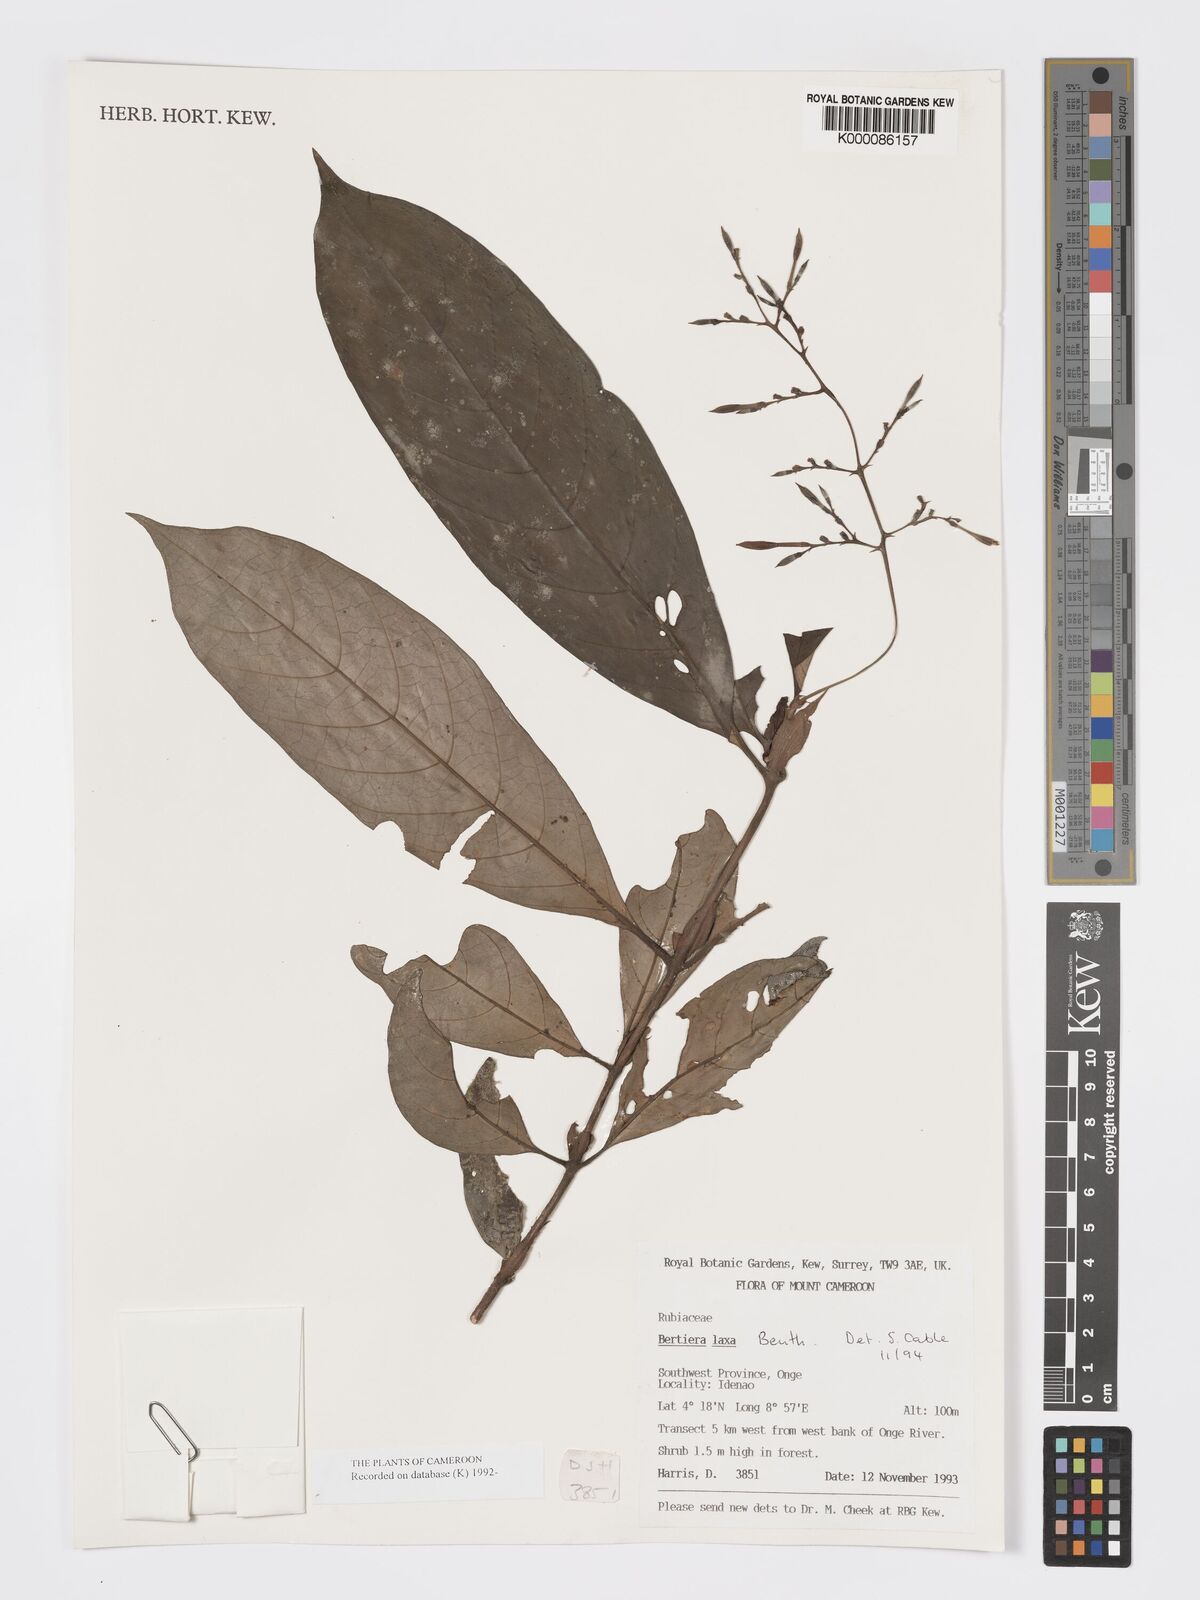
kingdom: Plantae
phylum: Tracheophyta
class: Magnoliopsida
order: Gentianales
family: Rubiaceae
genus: Bertiera
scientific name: Bertiera laxa
